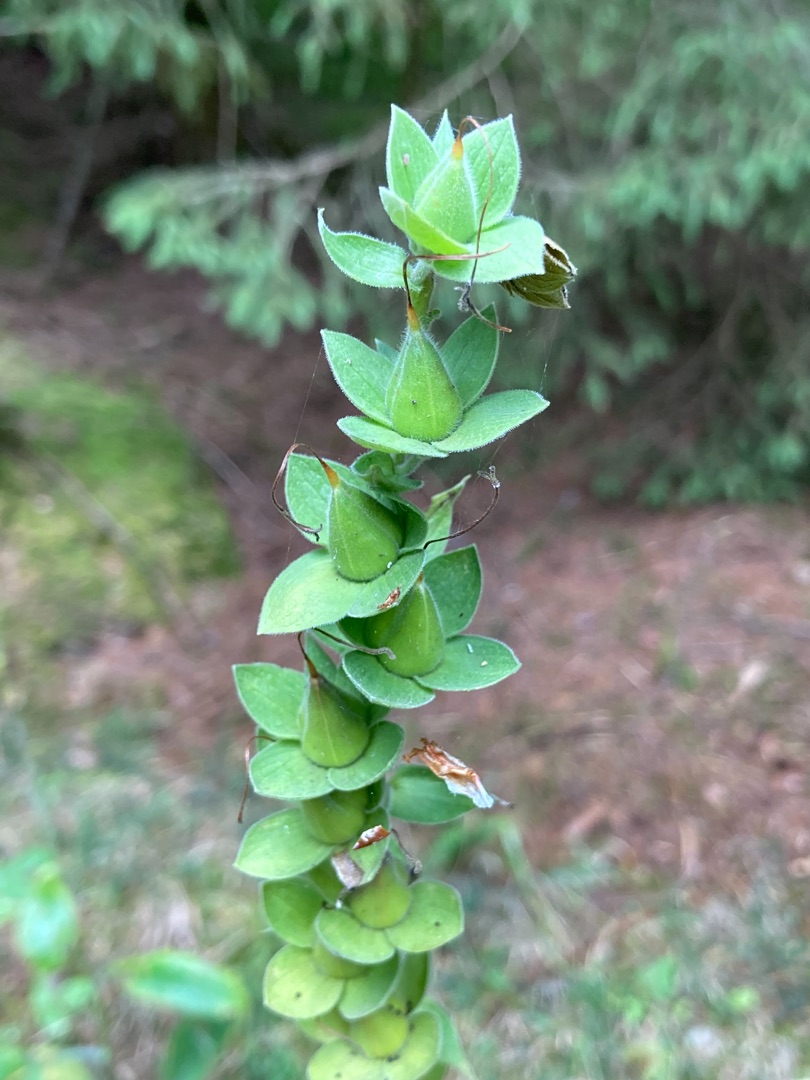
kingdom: Plantae
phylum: Tracheophyta
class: Magnoliopsida
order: Lamiales
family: Plantaginaceae
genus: Digitalis
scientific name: Digitalis purpurea
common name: Almindelig fingerbøl
